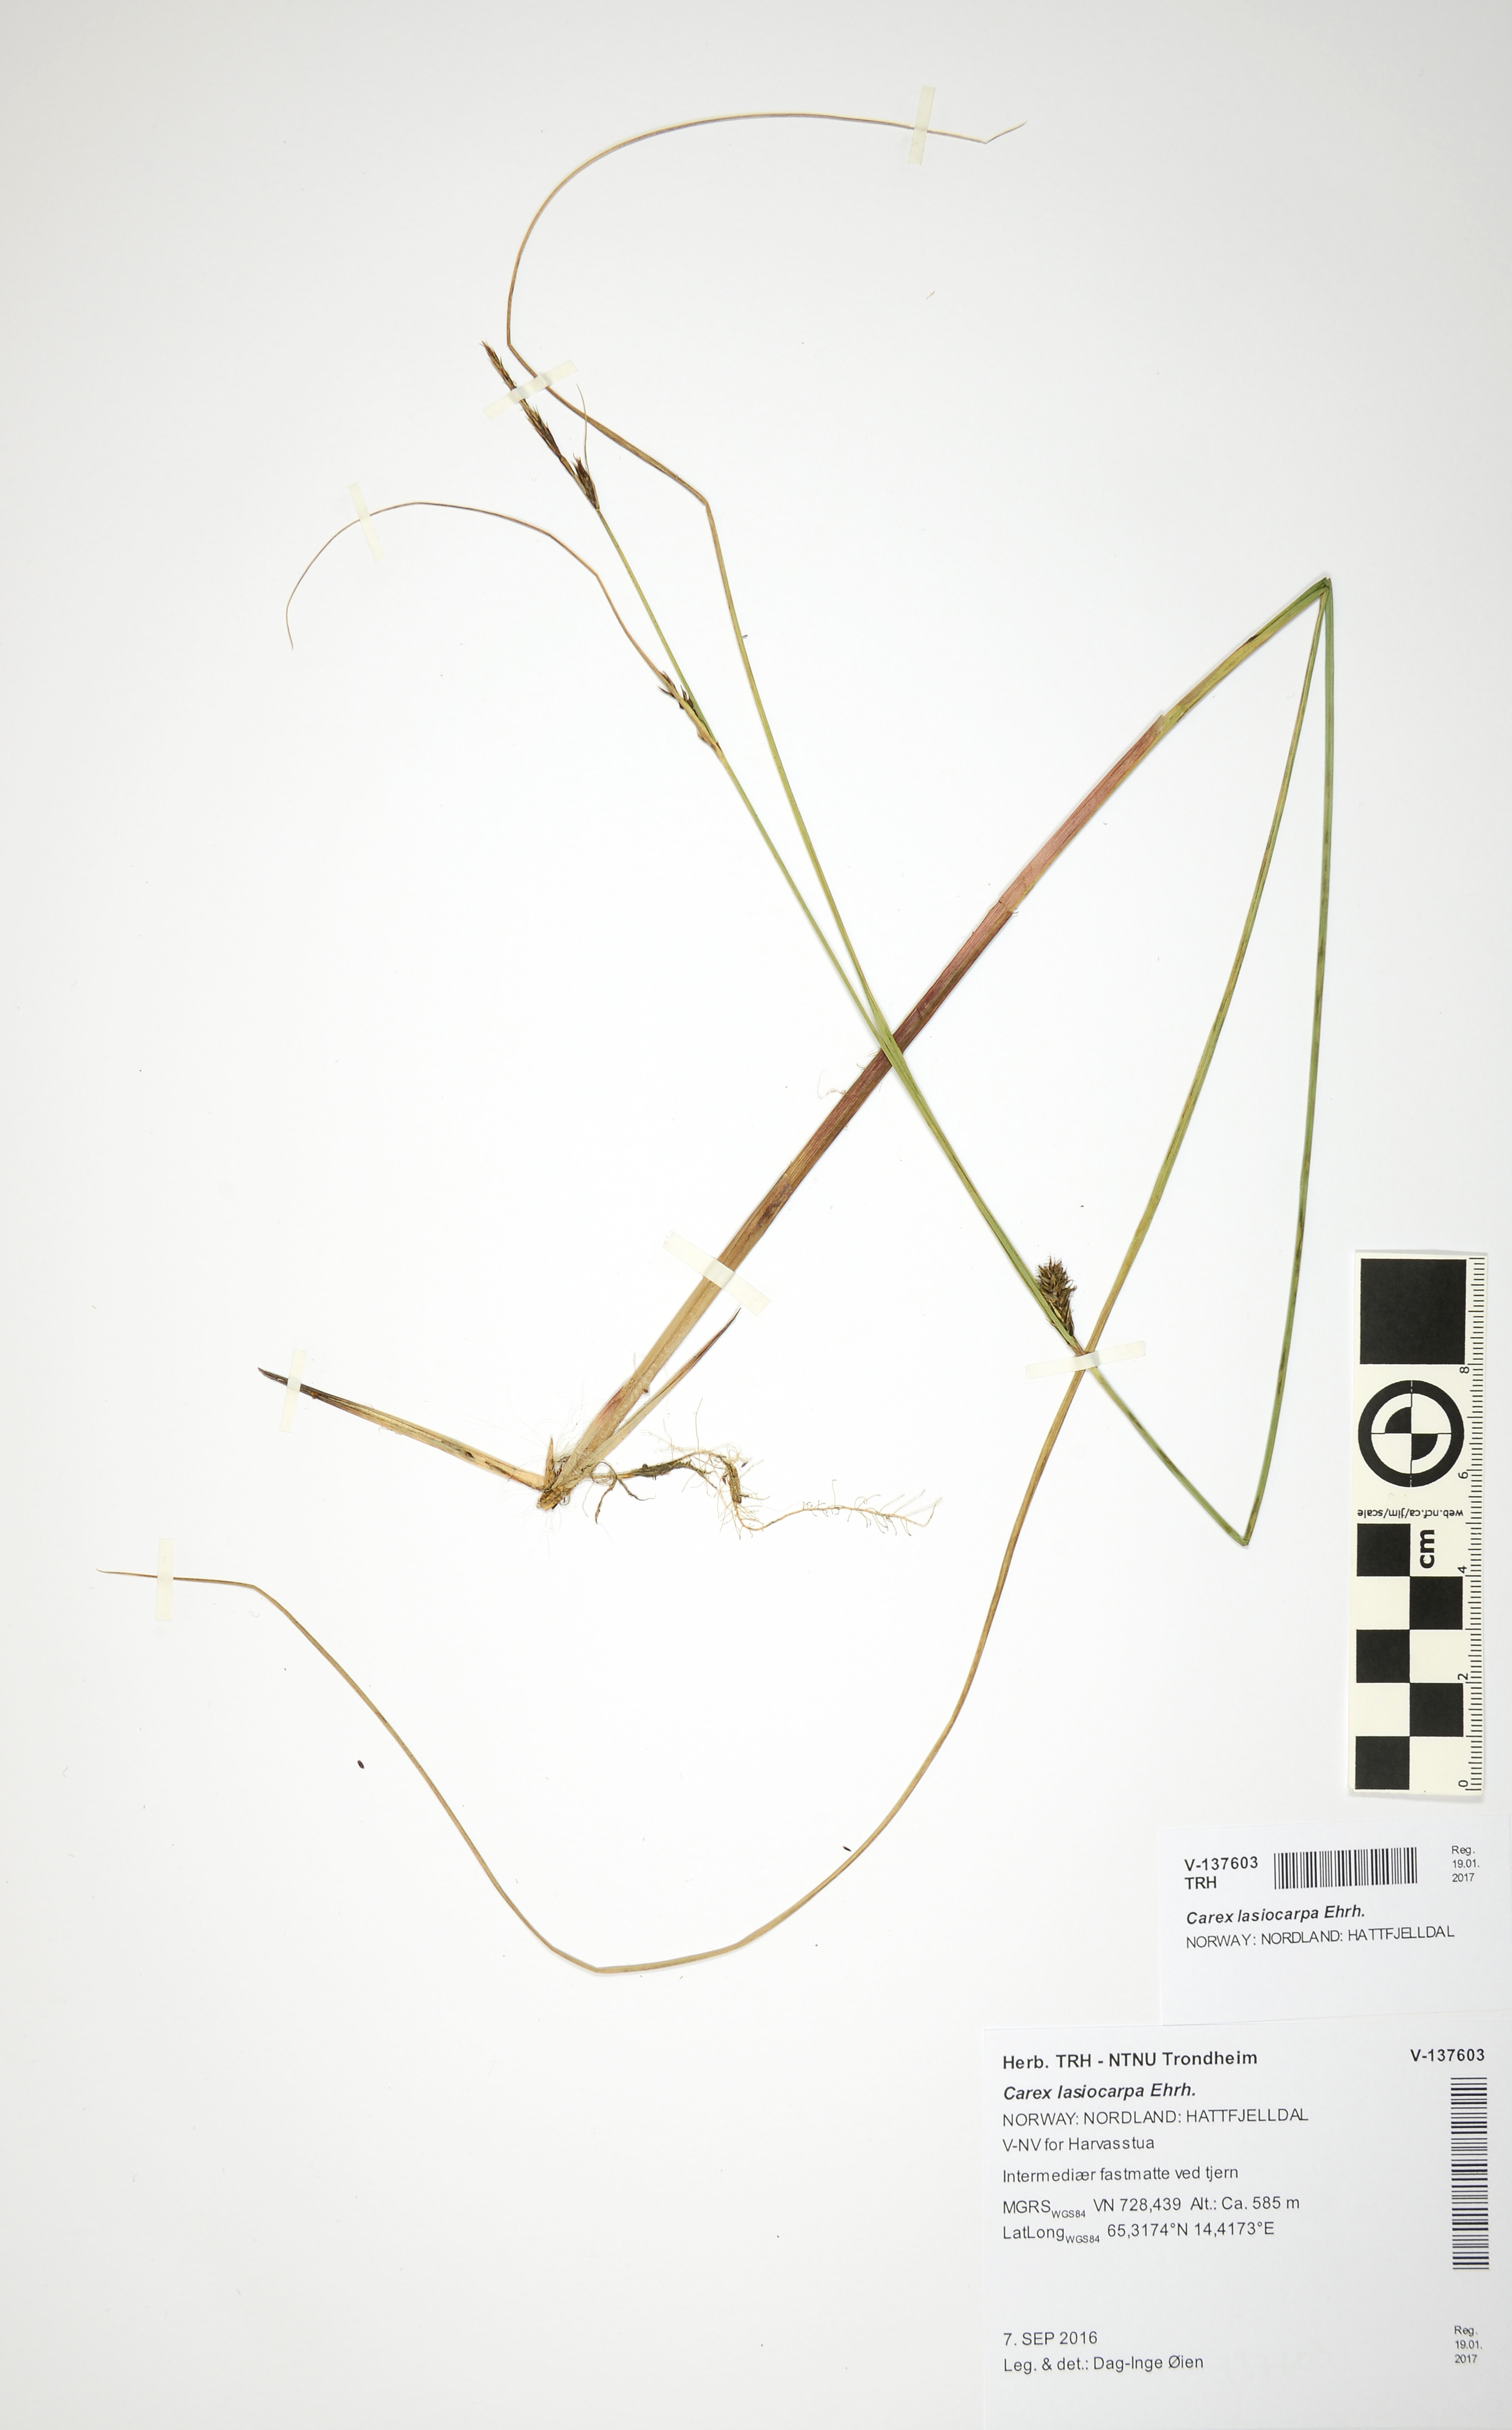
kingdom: Plantae
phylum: Tracheophyta
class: Liliopsida
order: Poales
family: Cyperaceae
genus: Carex
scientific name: Carex lasiocarpa
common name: Slender sedge
